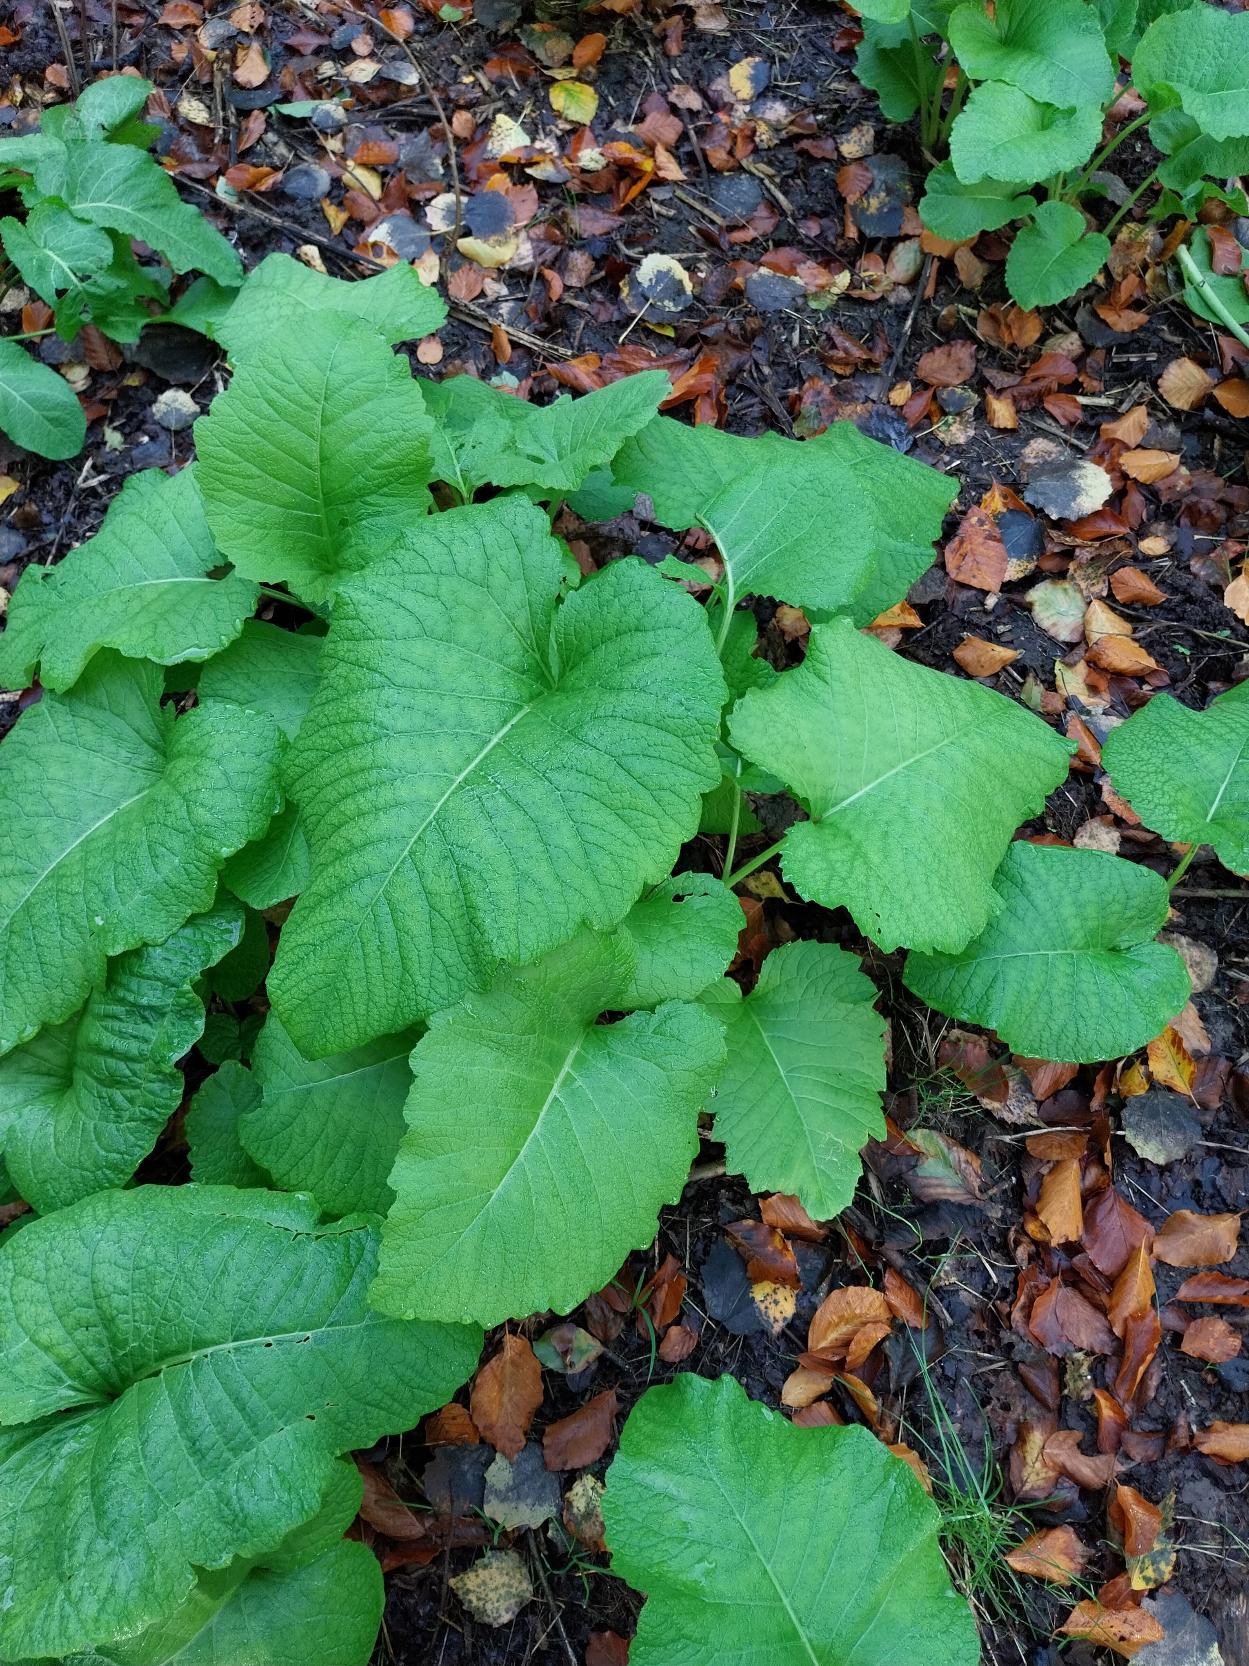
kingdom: Plantae
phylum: Tracheophyta
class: Magnoliopsida
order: Asterales
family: Asteraceae
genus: Telekia
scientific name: Telekia speciosa
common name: Tusindstråle
